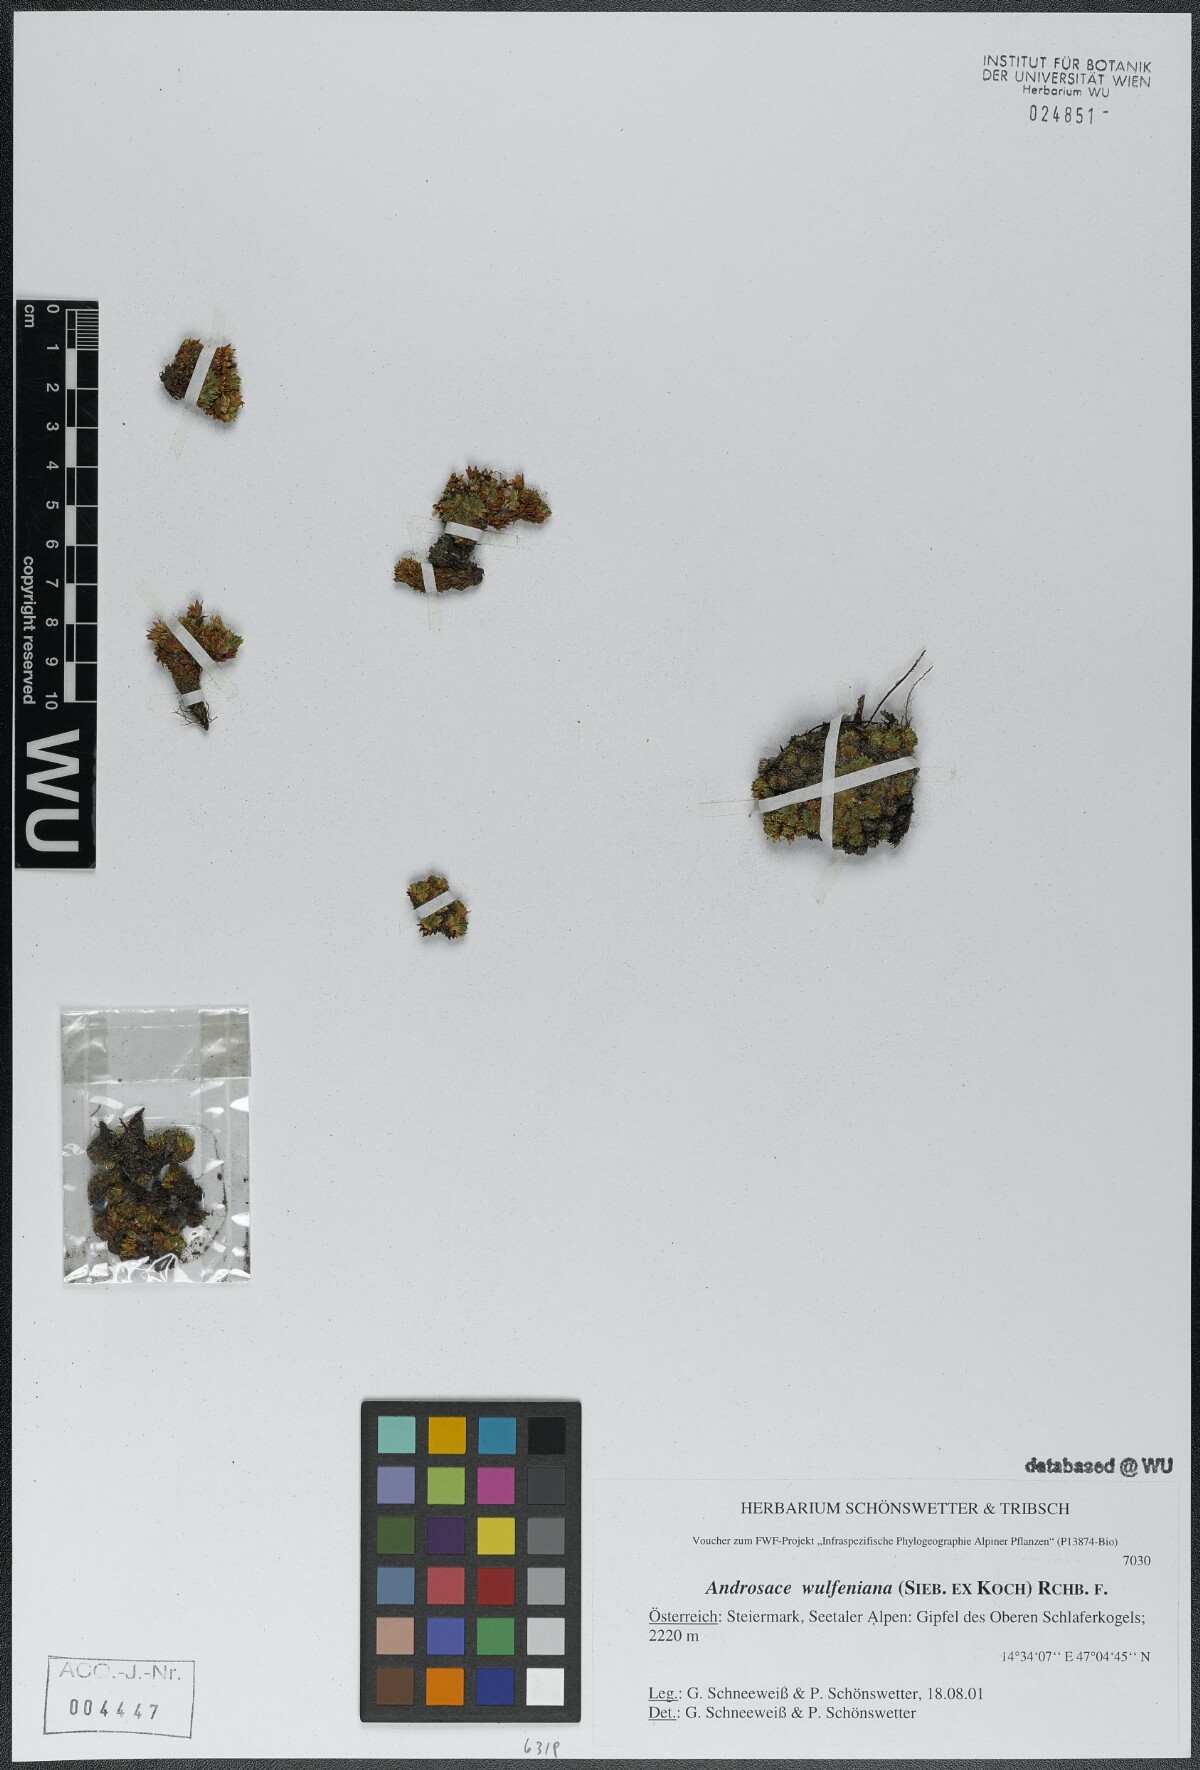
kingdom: Plantae
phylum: Tracheophyta
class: Magnoliopsida
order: Ericales
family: Primulaceae
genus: Androsace
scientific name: Androsace wulfeniana
